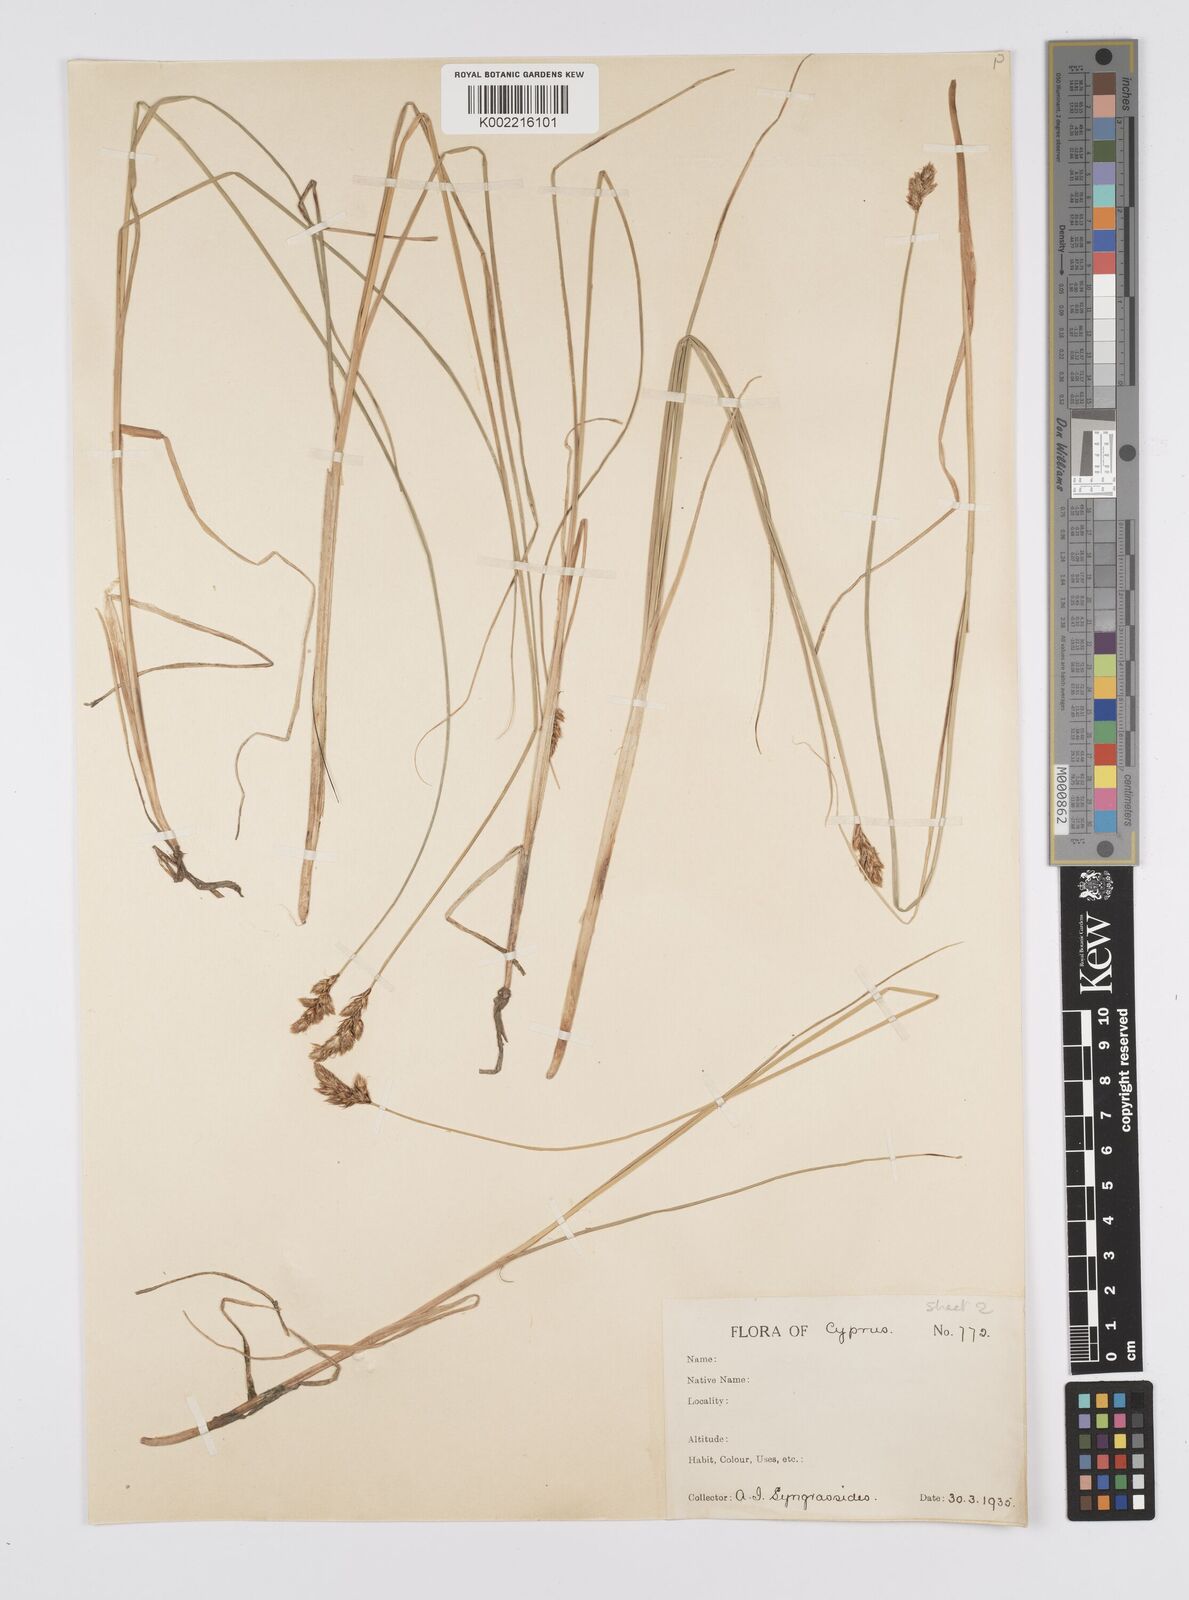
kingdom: Plantae
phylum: Tracheophyta
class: Liliopsida
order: Poales
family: Cyperaceae
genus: Carex
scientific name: Carex divisa
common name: Divided sedge
